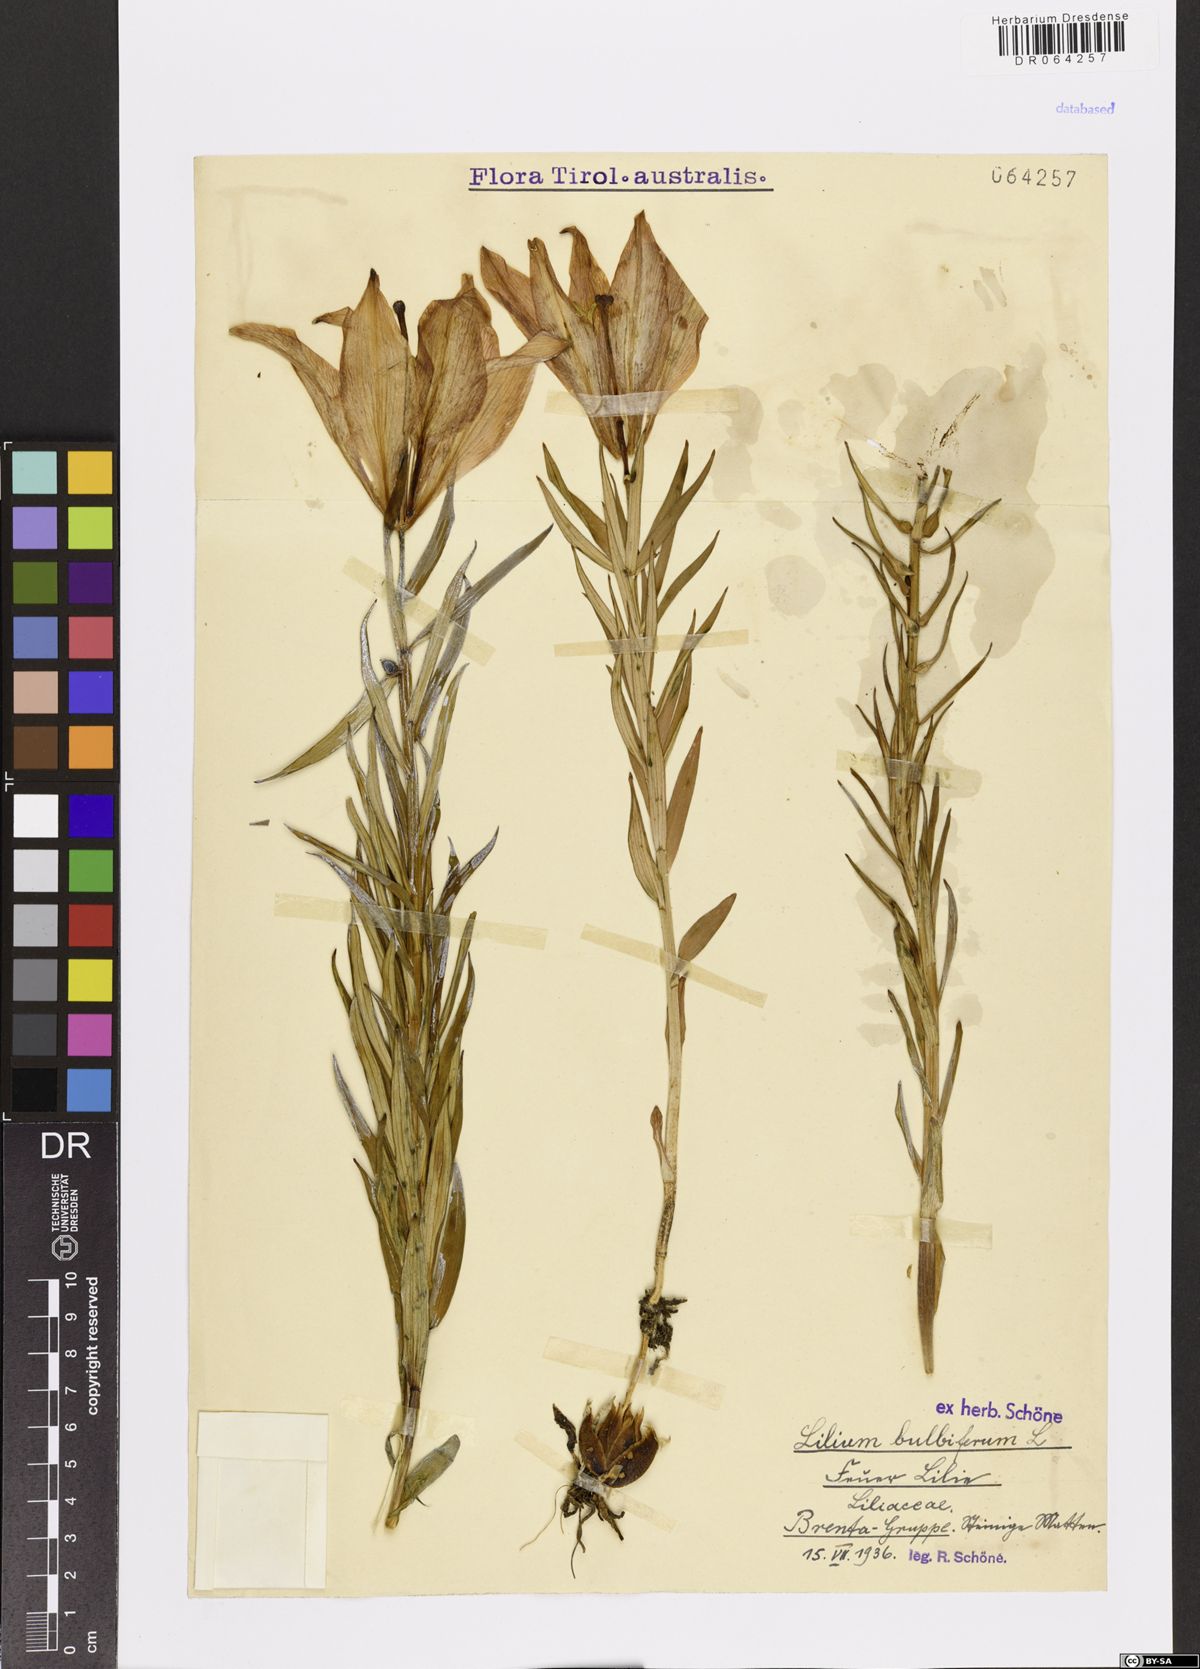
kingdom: Plantae
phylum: Tracheophyta
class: Liliopsida
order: Liliales
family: Liliaceae
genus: Lilium
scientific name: Lilium bulbiferum
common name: Orange lily
